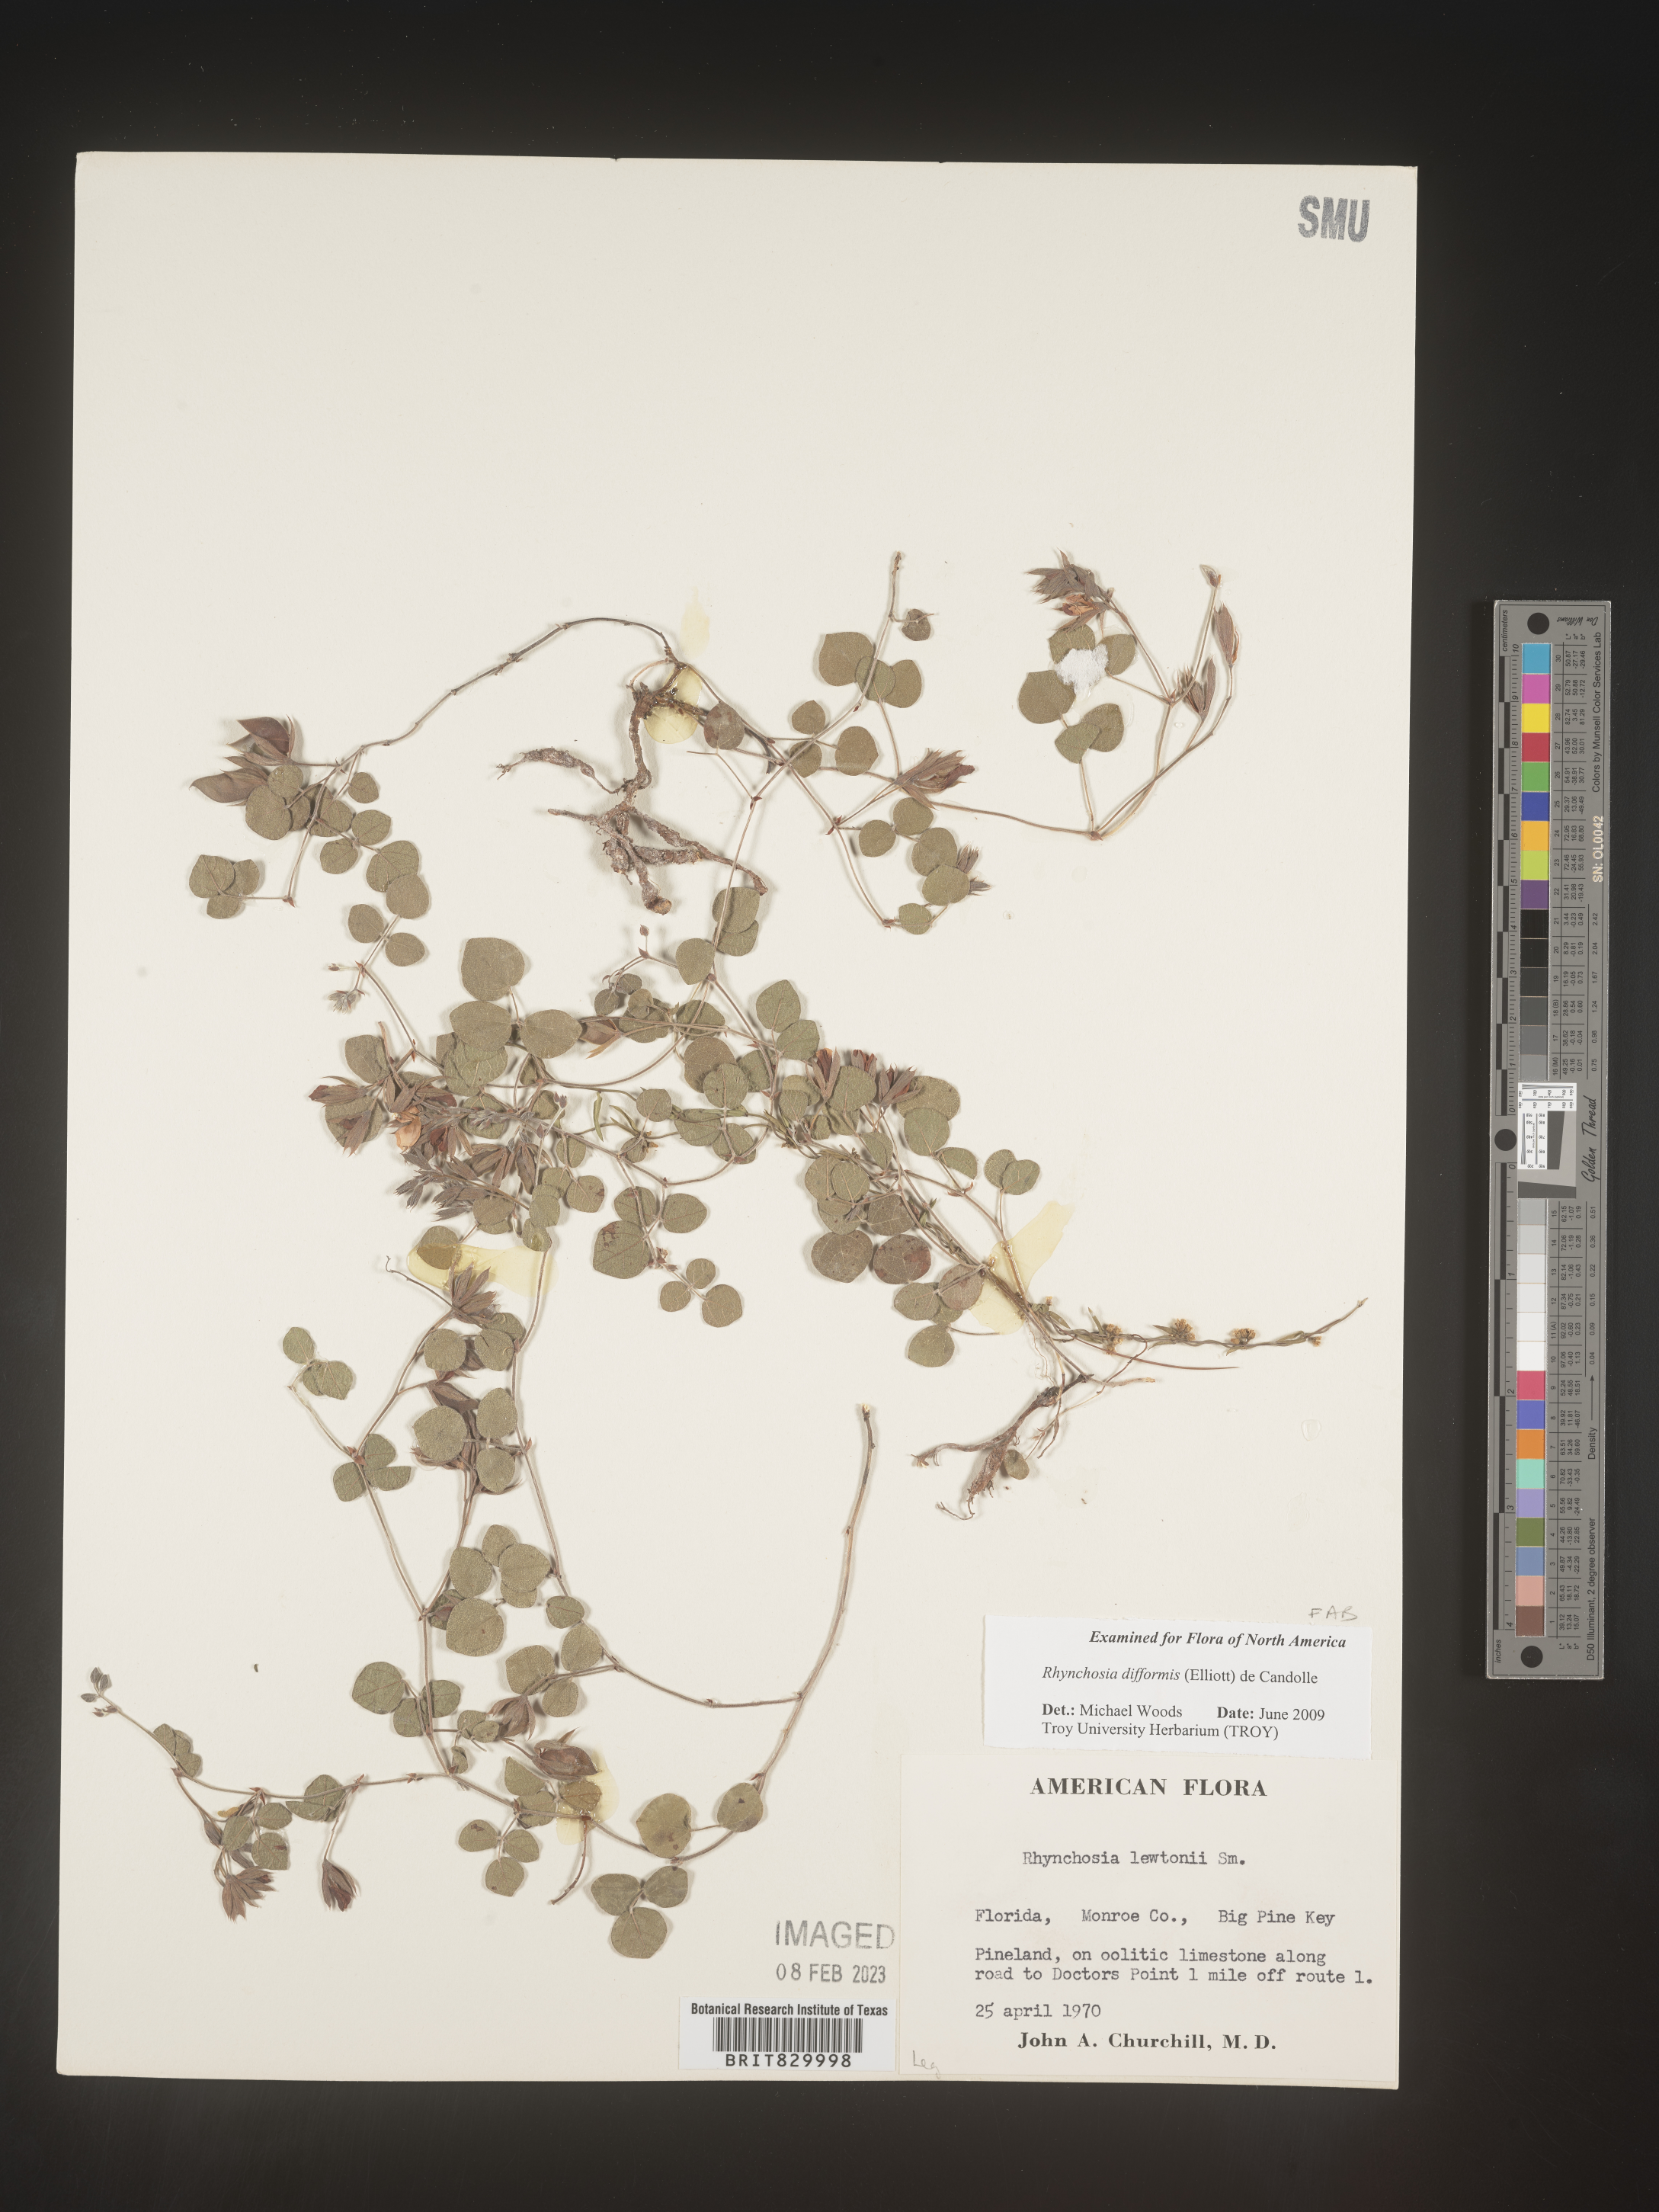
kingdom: Plantae
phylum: Tracheophyta
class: Magnoliopsida
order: Fabales
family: Fabaceae
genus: Rhynchosia
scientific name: Rhynchosia difformis
